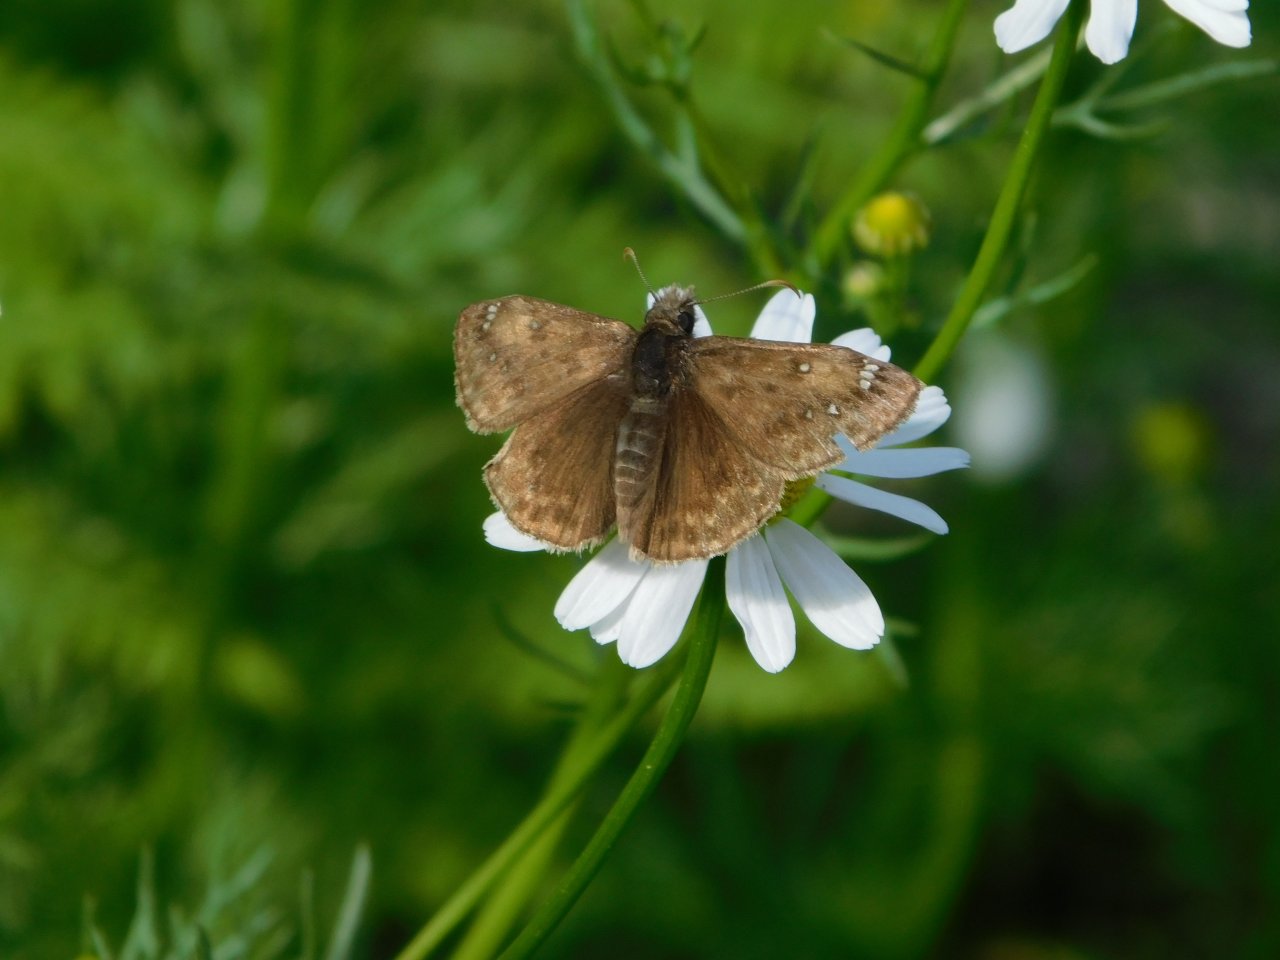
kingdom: Animalia
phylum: Arthropoda
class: Insecta
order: Lepidoptera
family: Hesperiidae
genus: Gesta
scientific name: Gesta
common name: Juvenal's Duskywing
